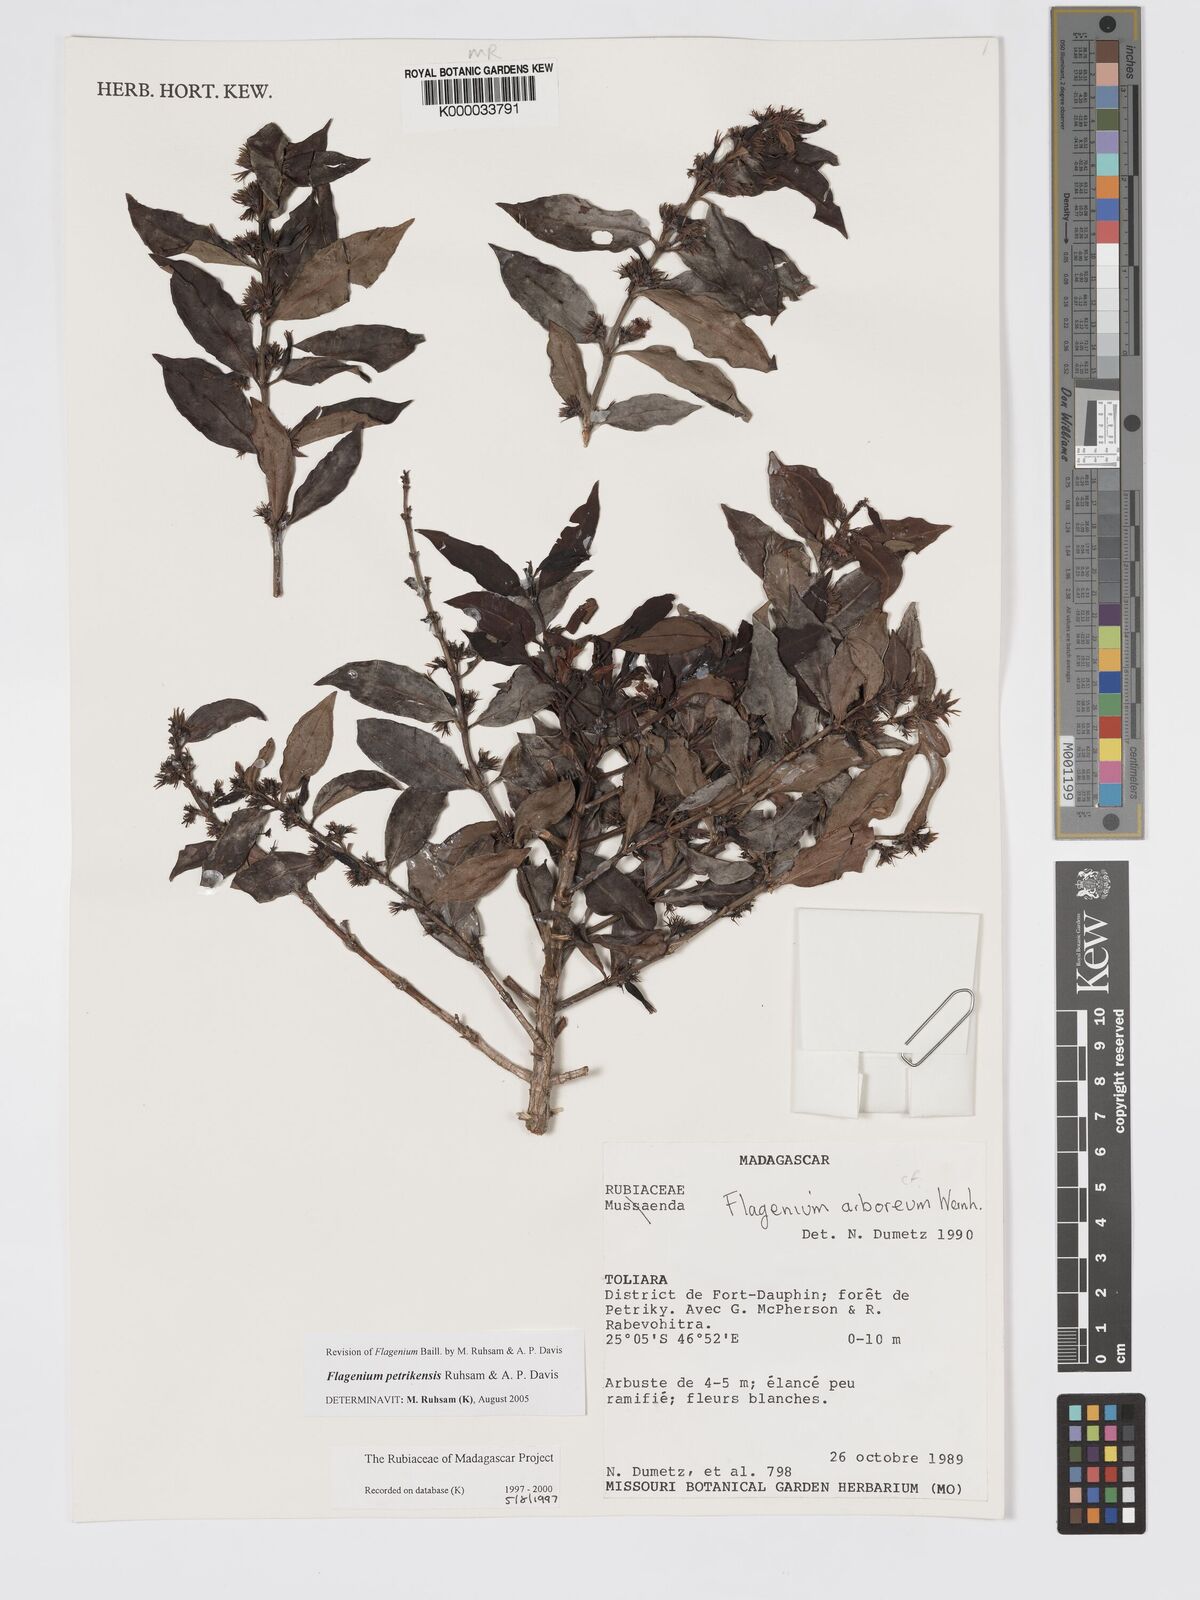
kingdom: Plantae
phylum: Tracheophyta
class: Magnoliopsida
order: Gentianales
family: Rubiaceae
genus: Flagenium
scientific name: Flagenium
